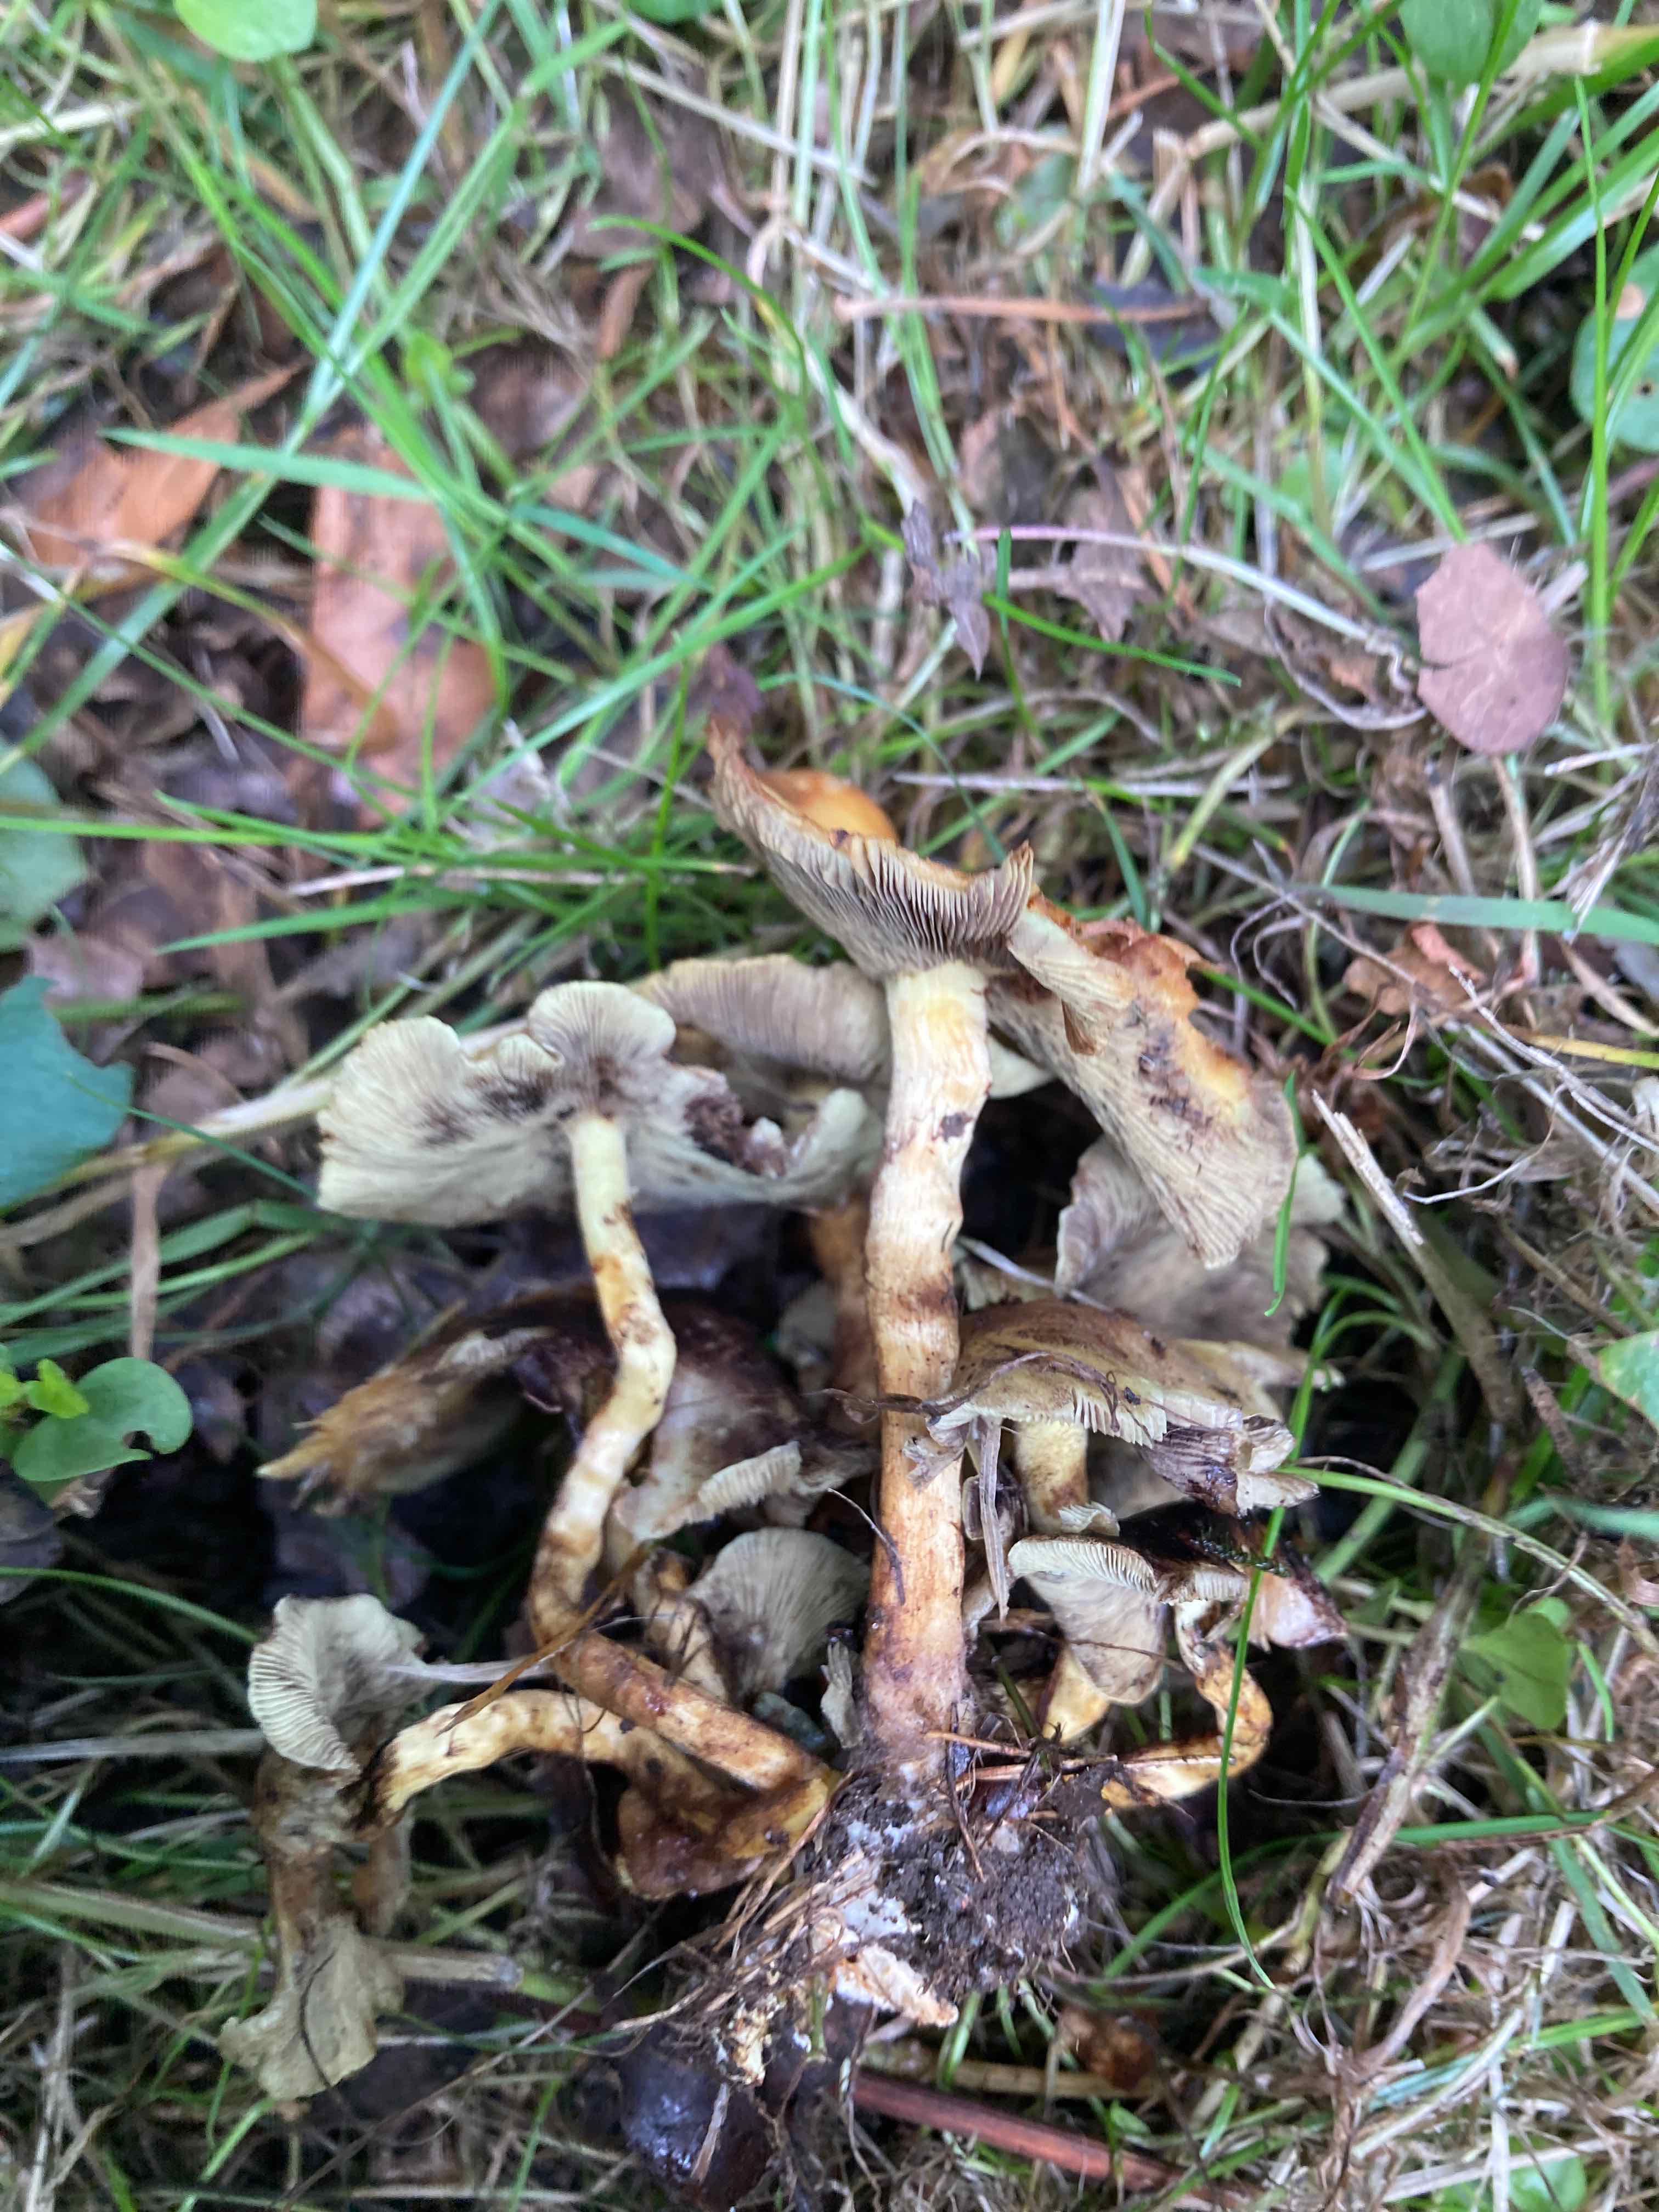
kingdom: Fungi
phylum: Basidiomycota
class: Agaricomycetes
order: Agaricales
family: Strophariaceae
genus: Hypholoma
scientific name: Hypholoma fasciculare
